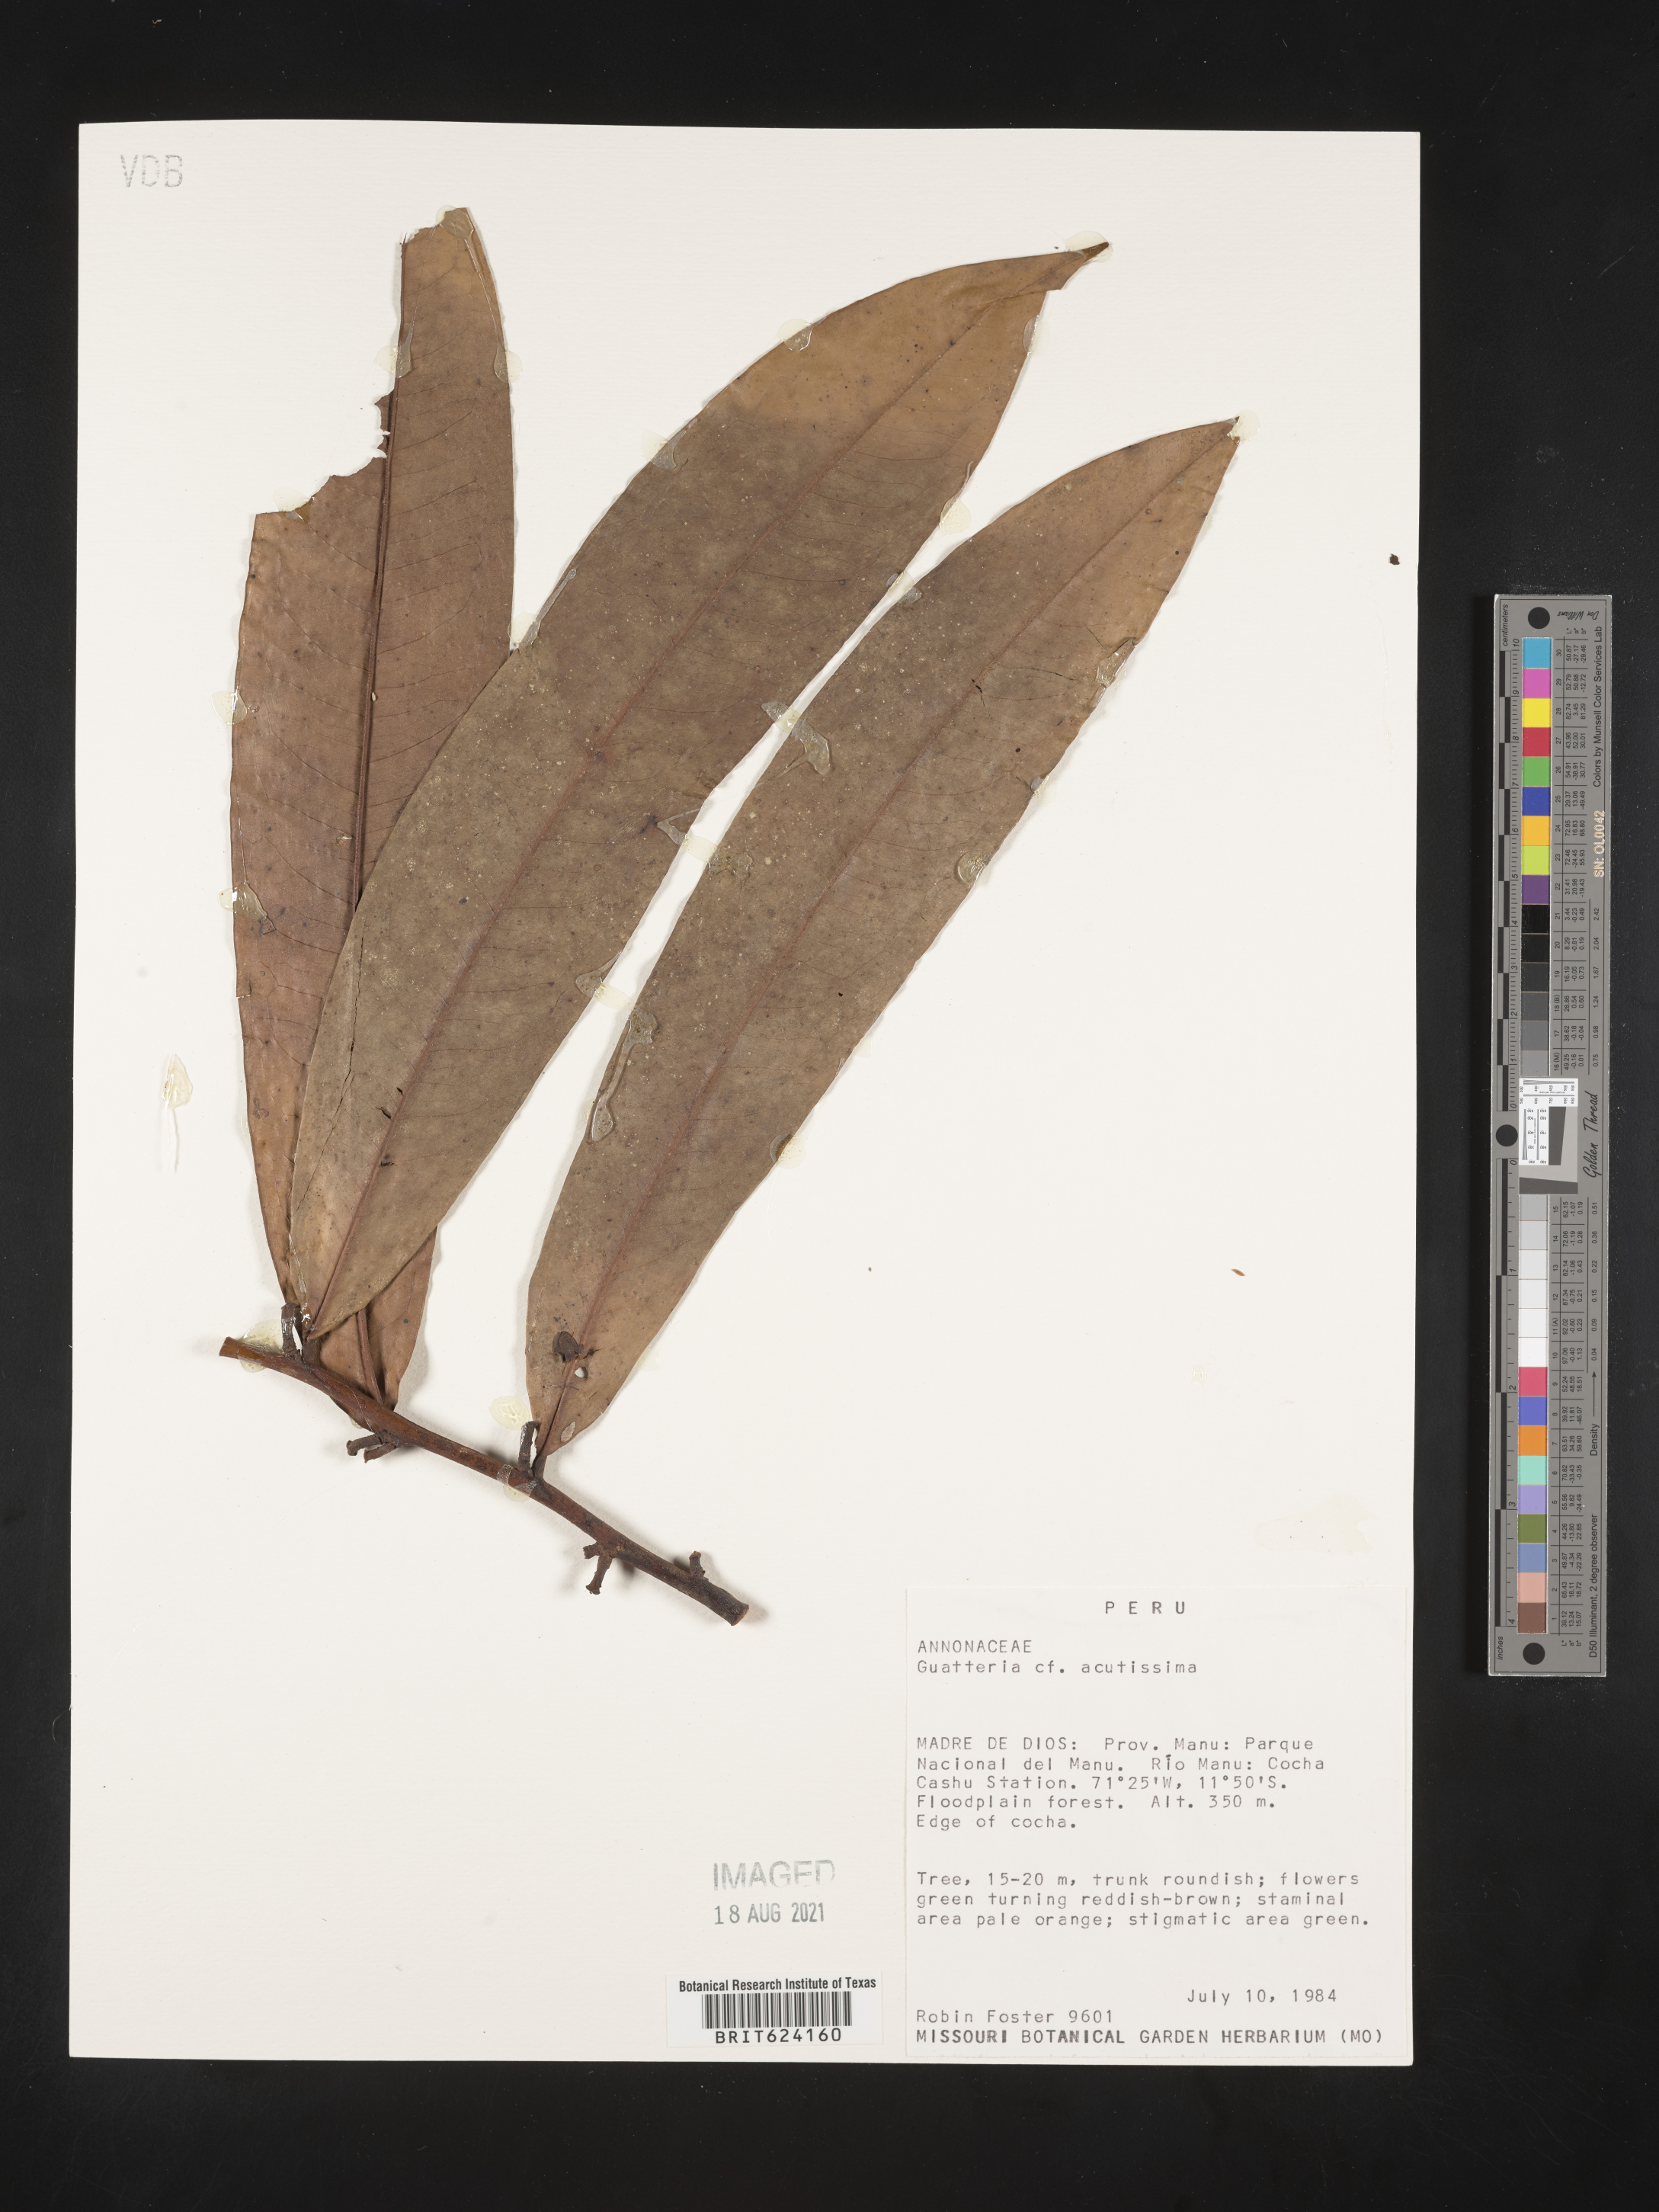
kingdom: Plantae
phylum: Tracheophyta
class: Magnoliopsida
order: Magnoliales
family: Annonaceae
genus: Guatteria
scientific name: Guatteria acutissima
